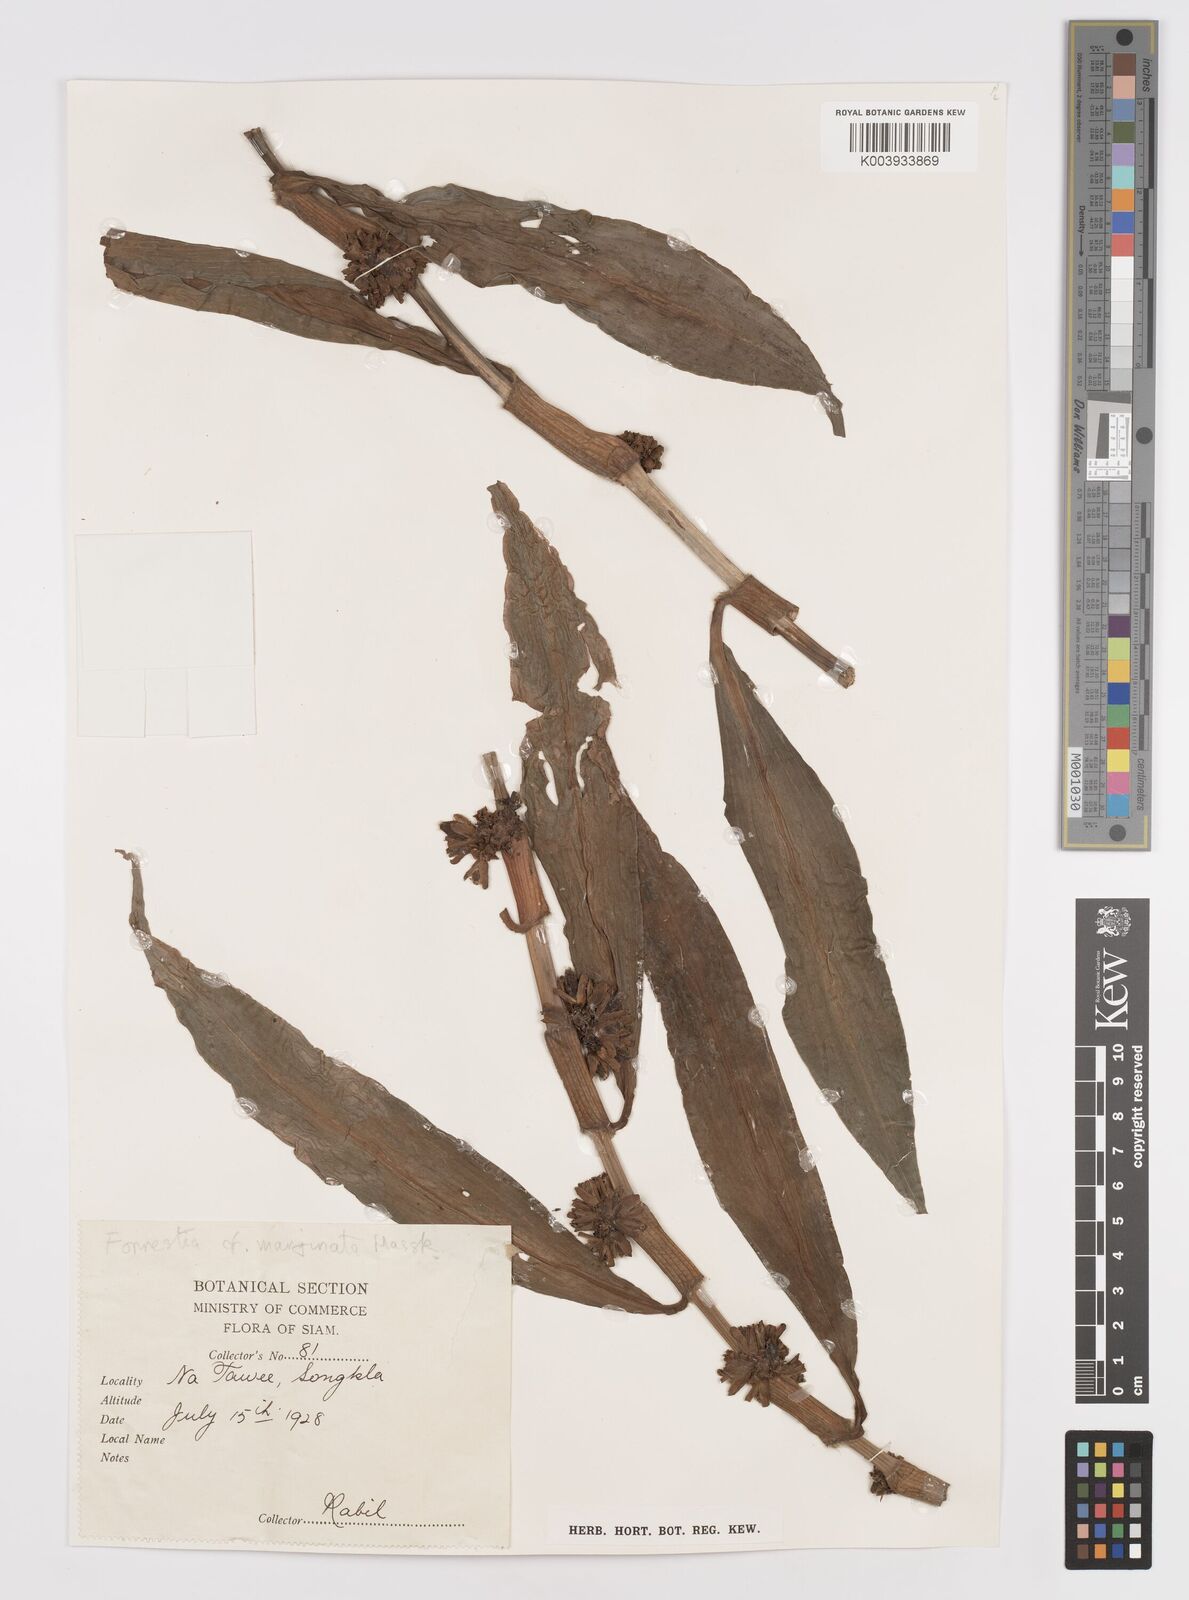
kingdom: Plantae
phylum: Tracheophyta
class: Liliopsida
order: Commelinales
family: Commelinaceae
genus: Amischotolype
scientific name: Amischotolype marginata
